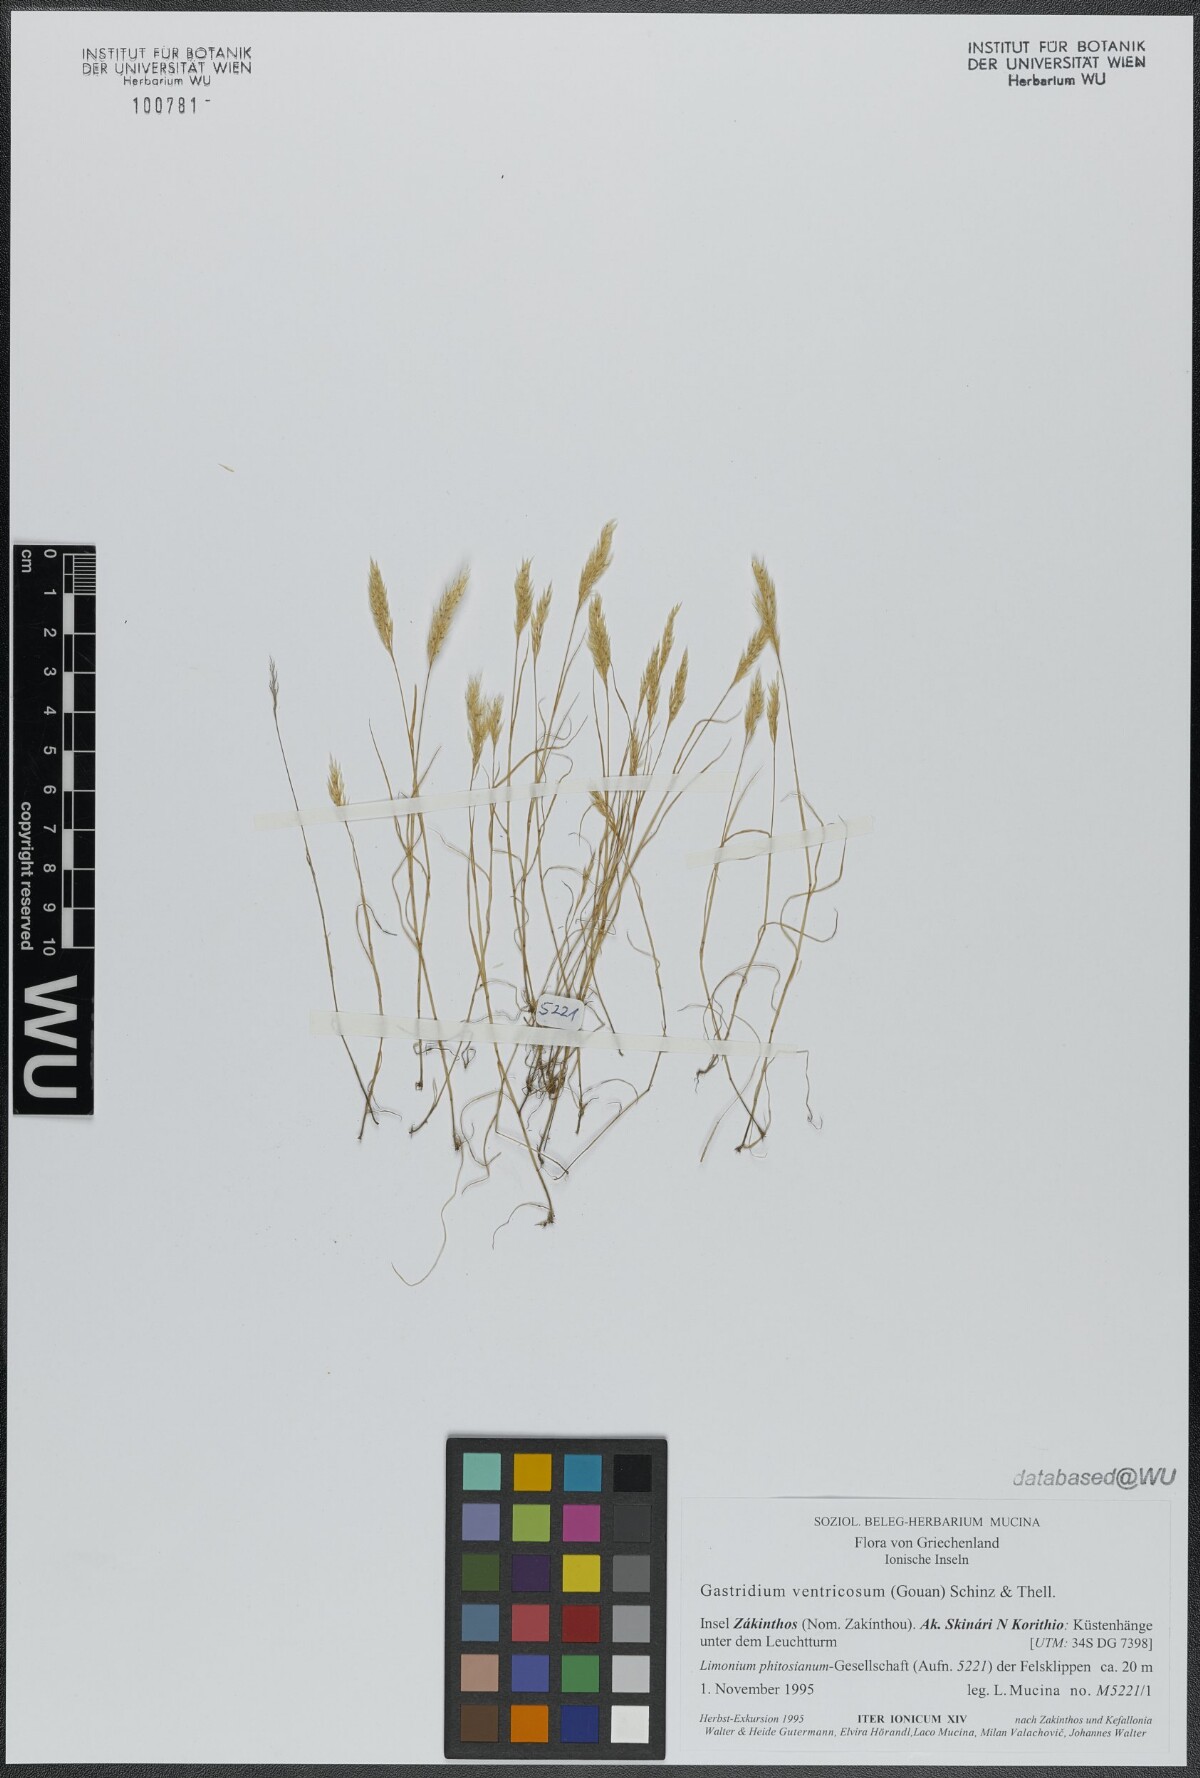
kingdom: Plantae
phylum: Tracheophyta
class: Liliopsida
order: Poales
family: Poaceae
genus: Gastridium
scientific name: Gastridium ventricosum
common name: Nit-grass
